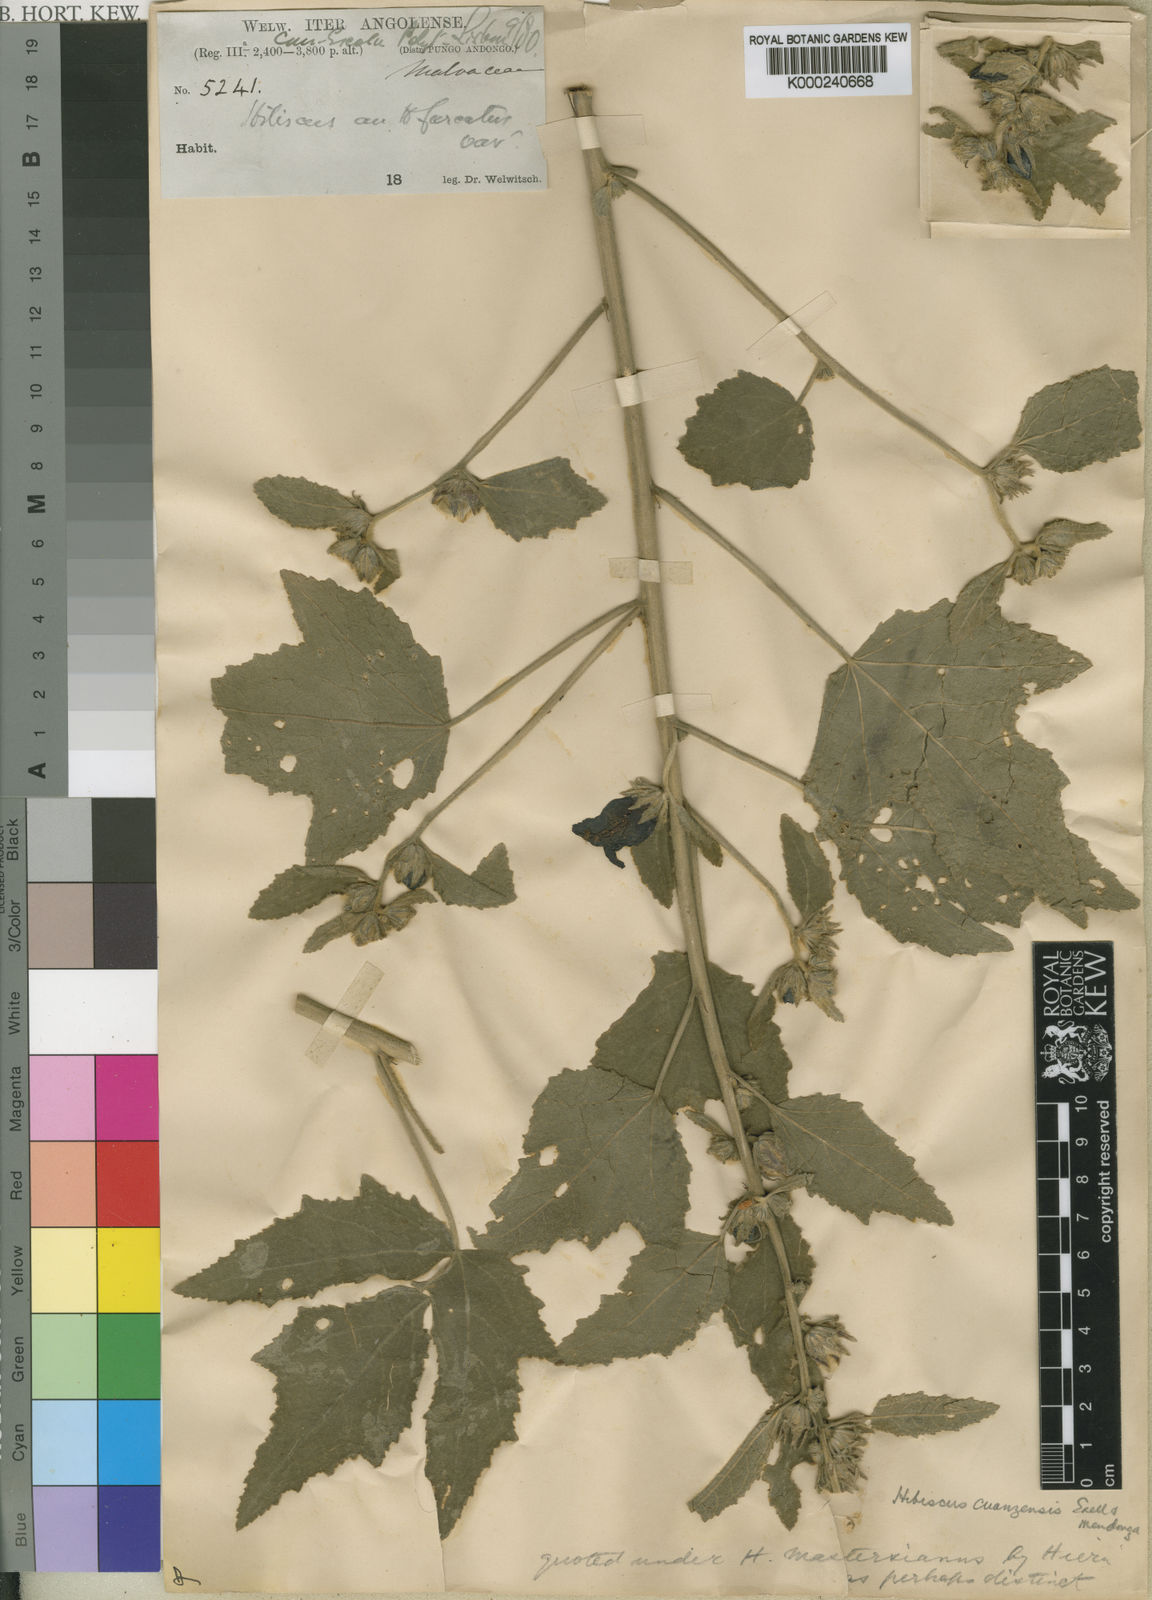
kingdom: Plantae
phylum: Tracheophyta
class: Magnoliopsida
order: Malvales
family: Malvaceae
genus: Hibiscus
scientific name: Hibiscus
